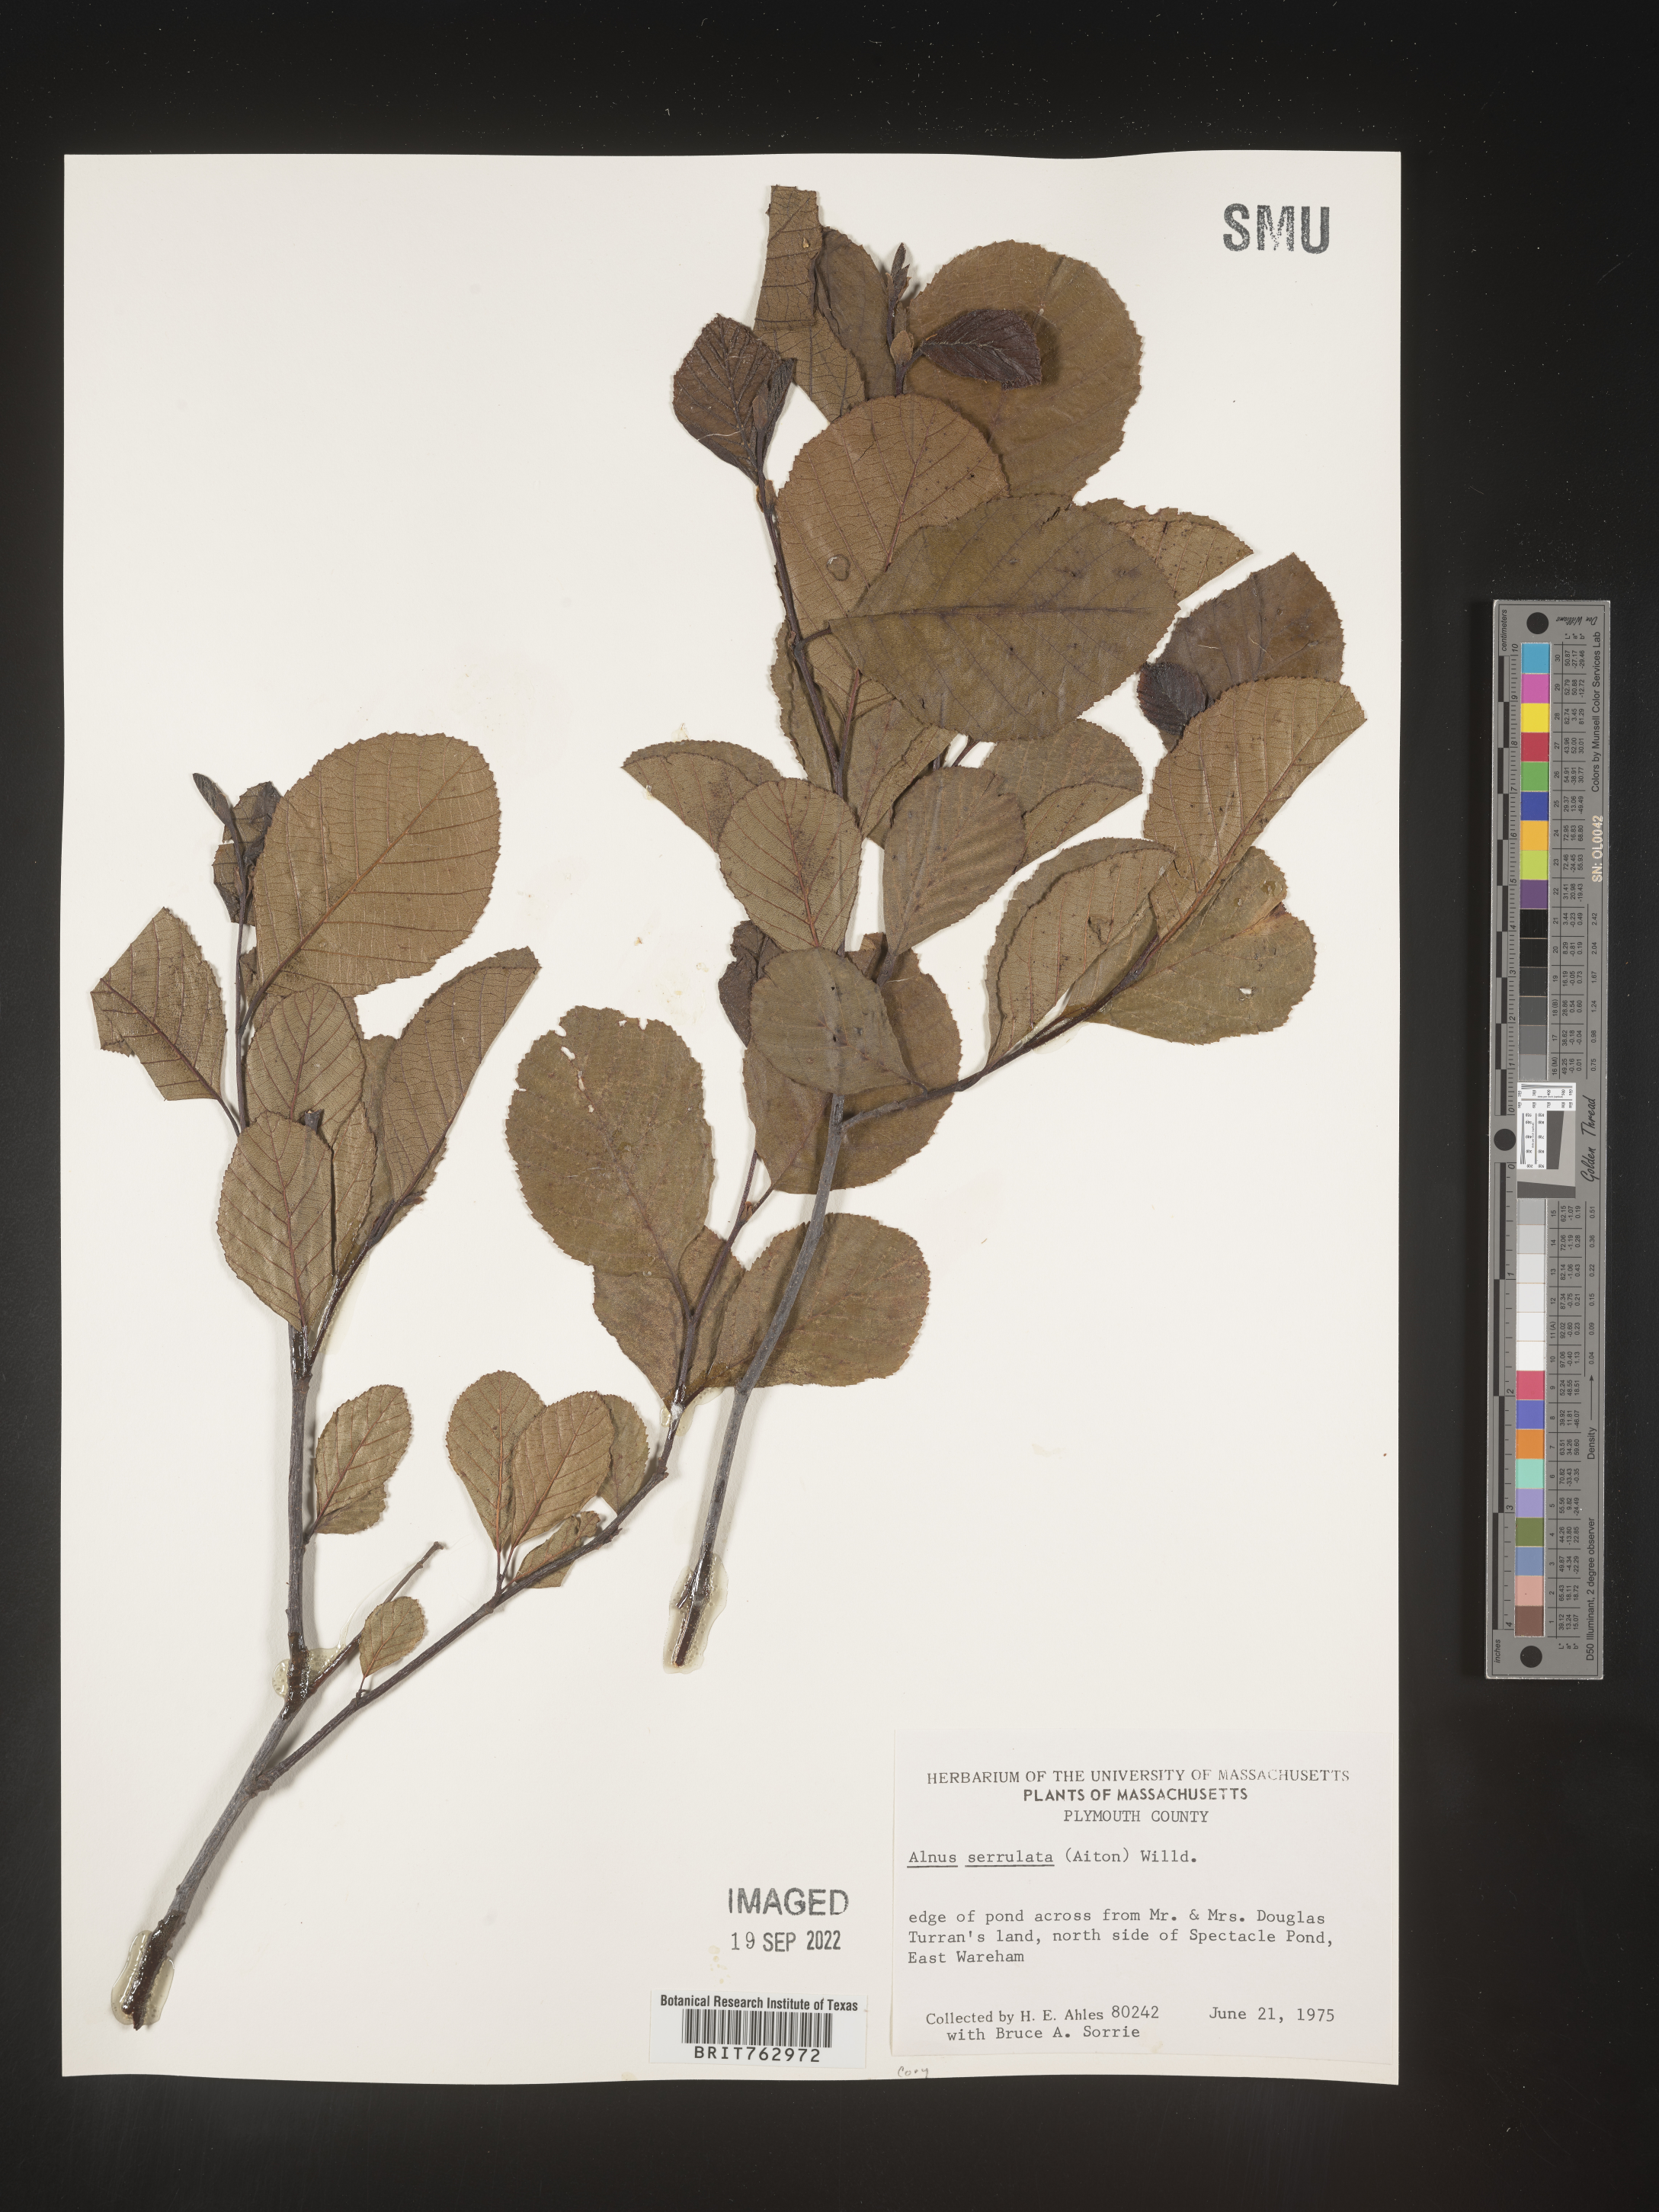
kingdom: Plantae
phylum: Tracheophyta
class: Magnoliopsida
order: Fagales
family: Betulaceae
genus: Alnus
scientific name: Alnus serrulata
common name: Hazel alder
